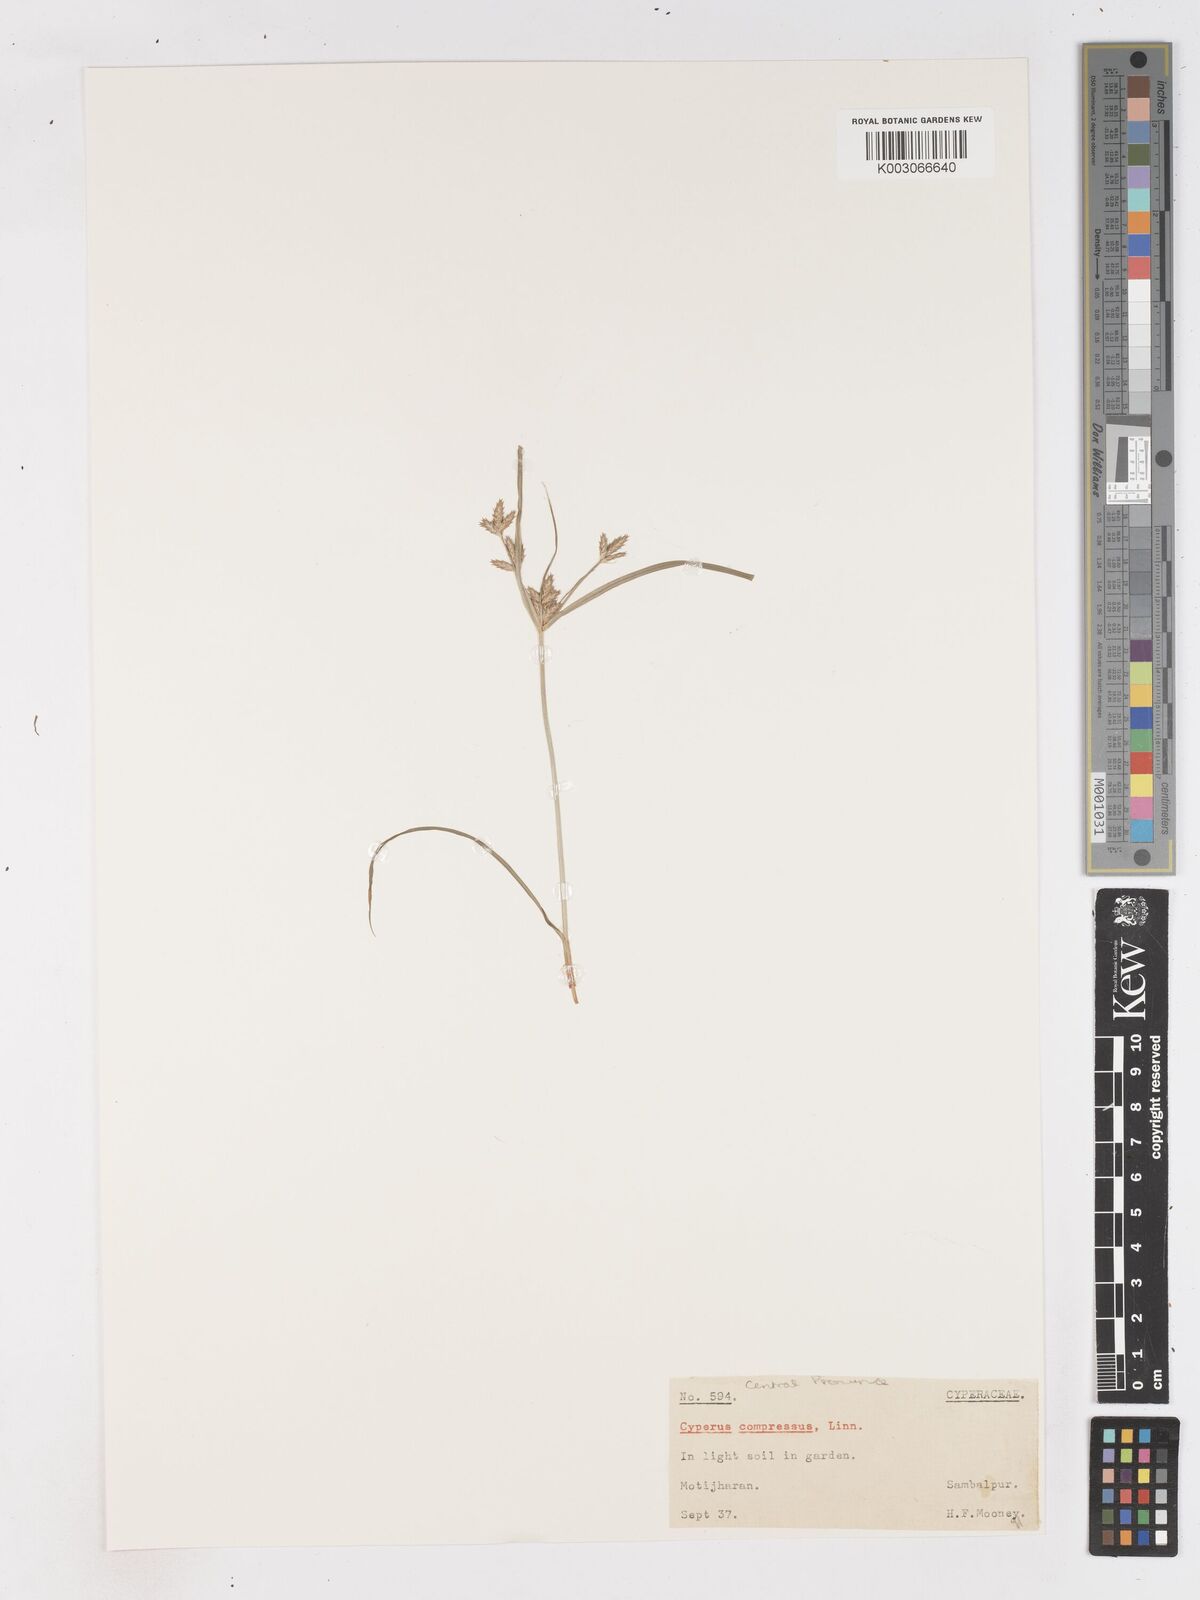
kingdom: Plantae
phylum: Tracheophyta
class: Liliopsida
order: Poales
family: Cyperaceae
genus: Cyperus
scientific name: Cyperus compressus
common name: Poorland flatsedge
